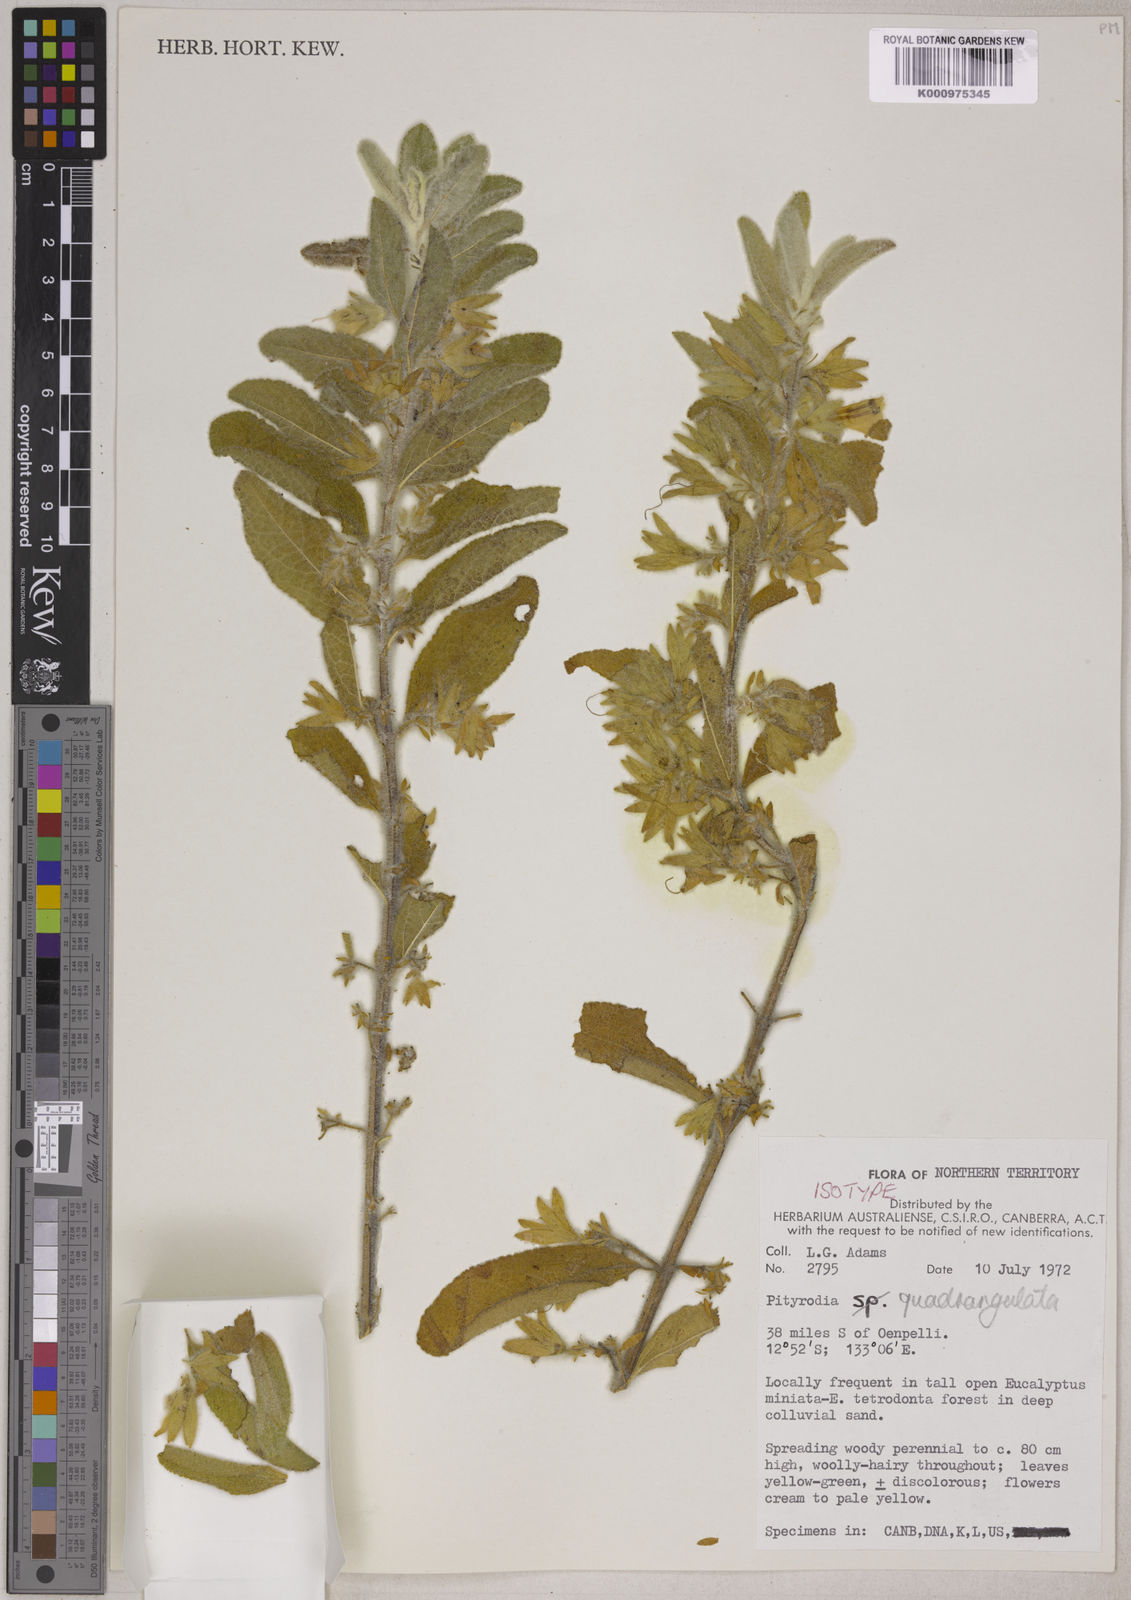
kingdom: Plantae
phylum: Tracheophyta
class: Magnoliopsida
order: Lamiales
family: Lamiaceae
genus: Muniria
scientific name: Muniria quadrangulata
